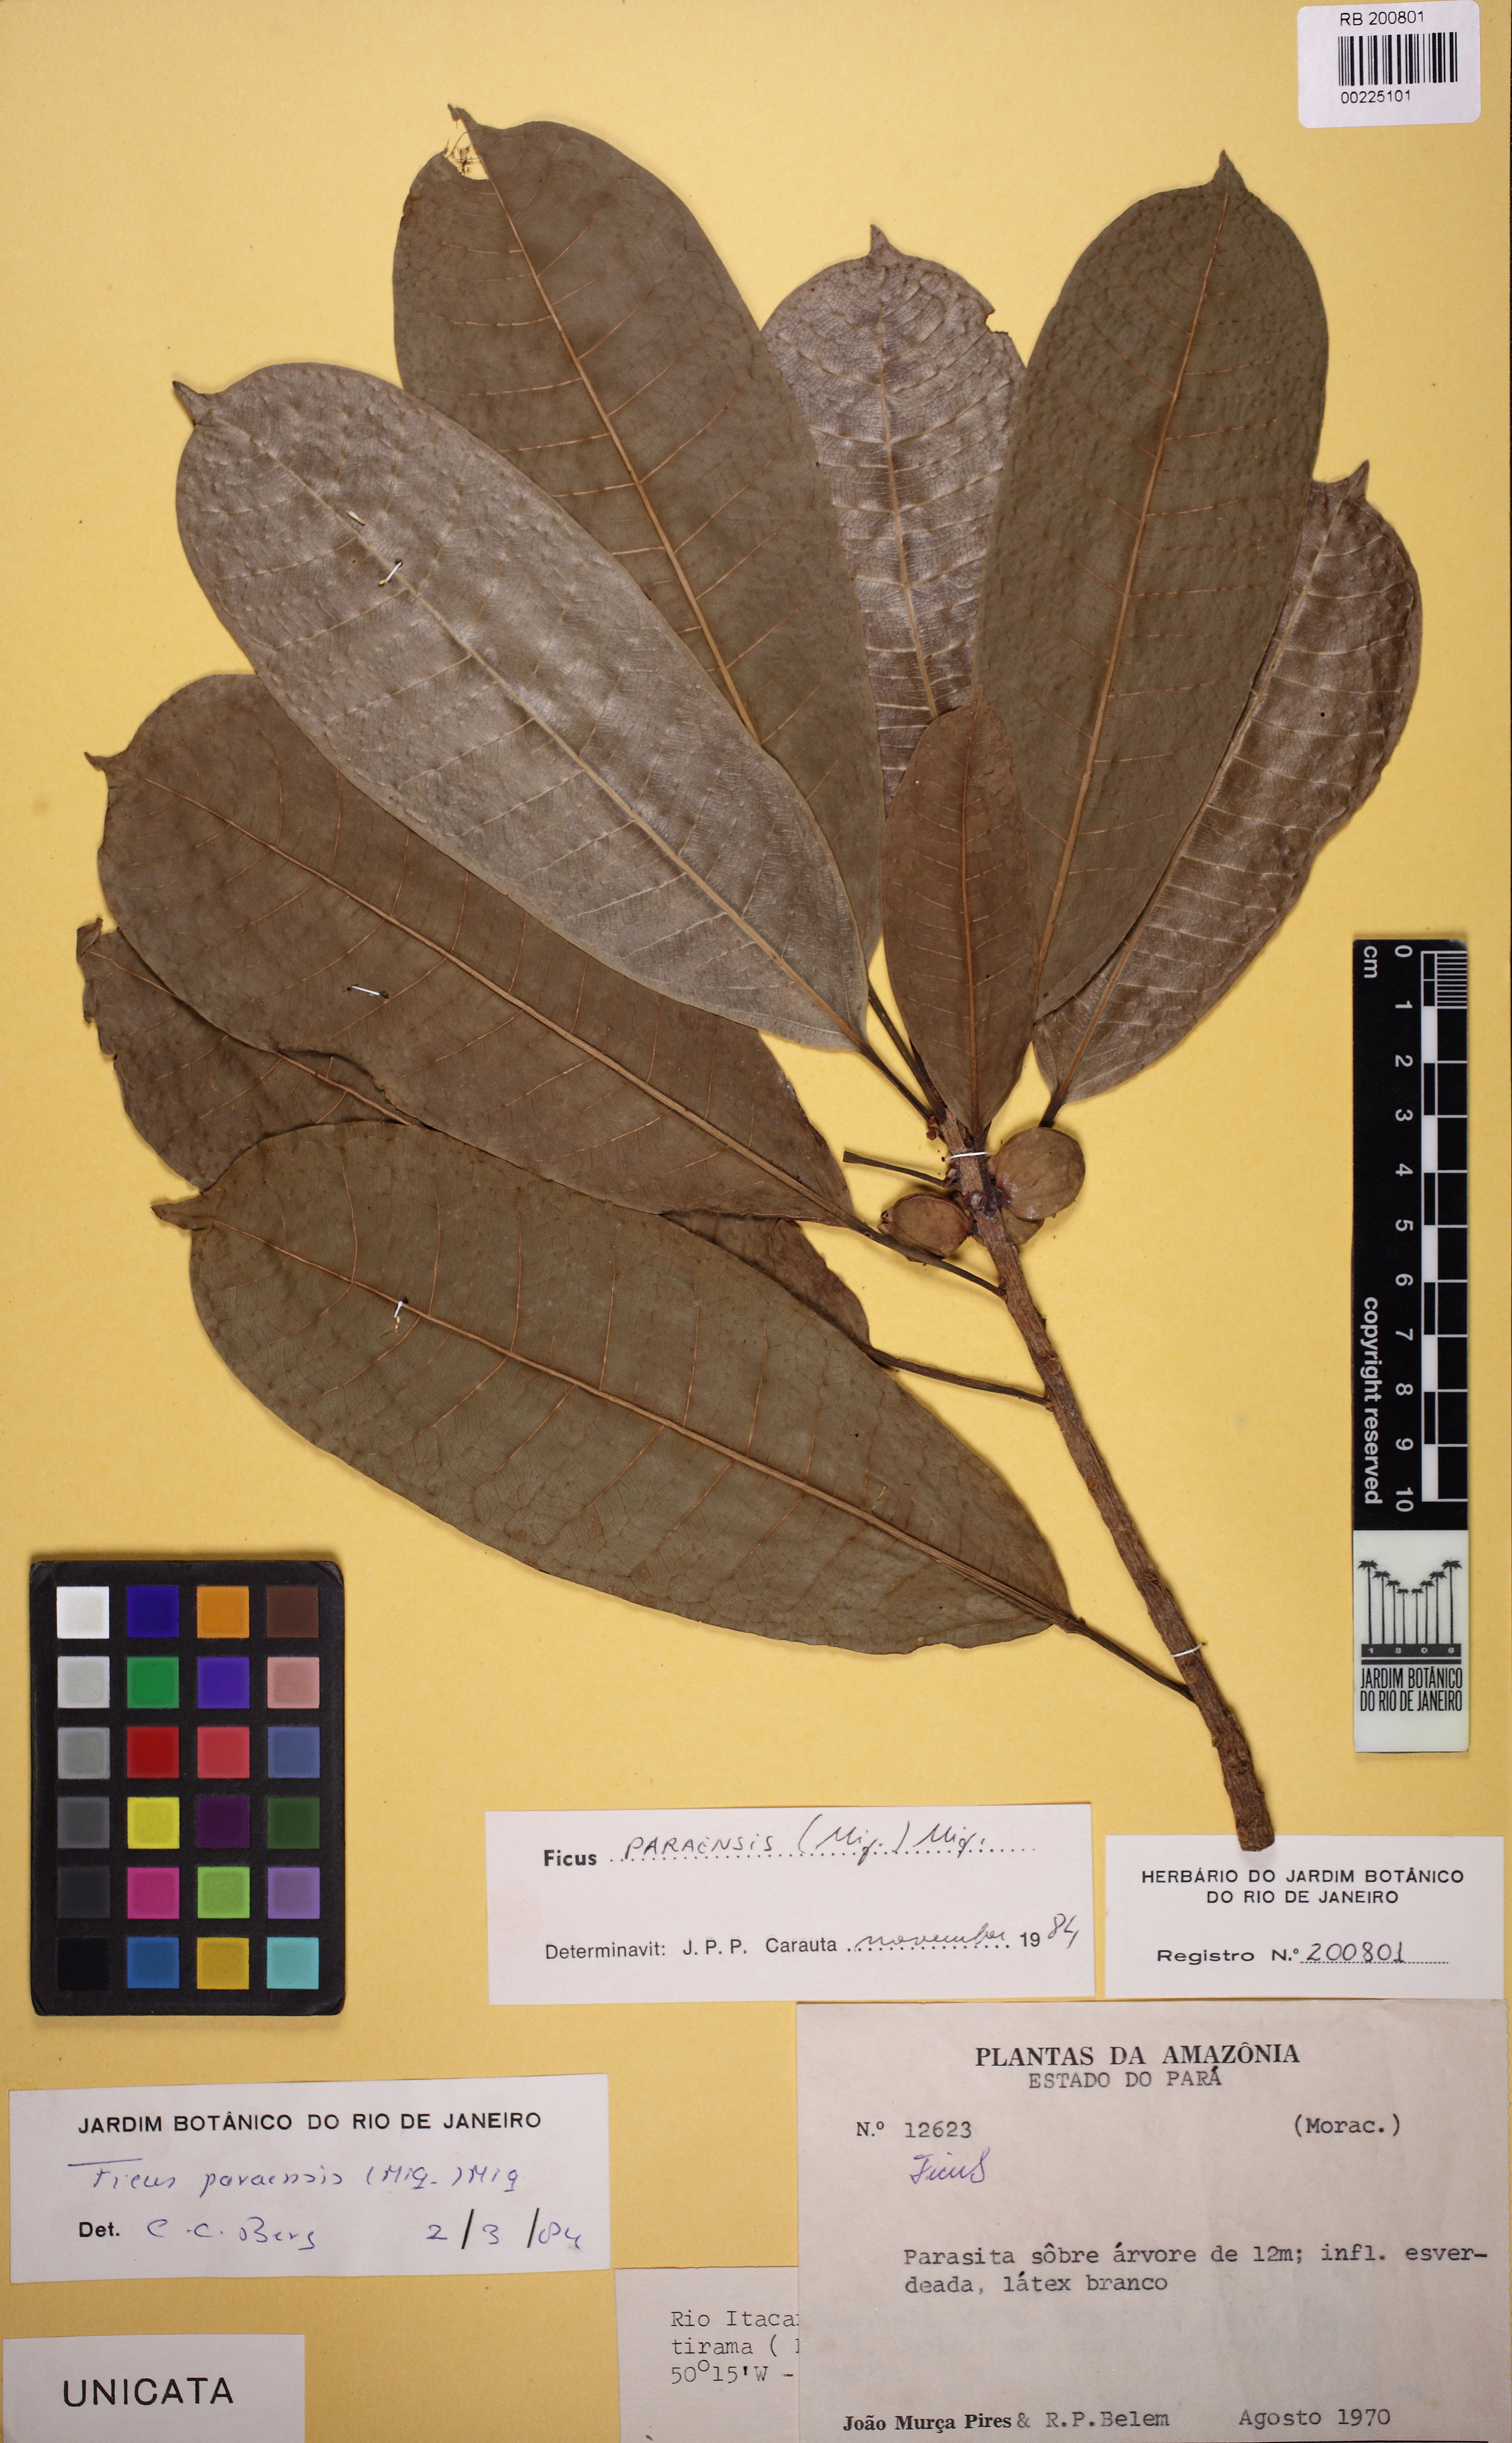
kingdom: Plantae
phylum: Tracheophyta
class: Magnoliopsida
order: Rosales
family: Moraceae
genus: Ficus
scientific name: Ficus paraensis
